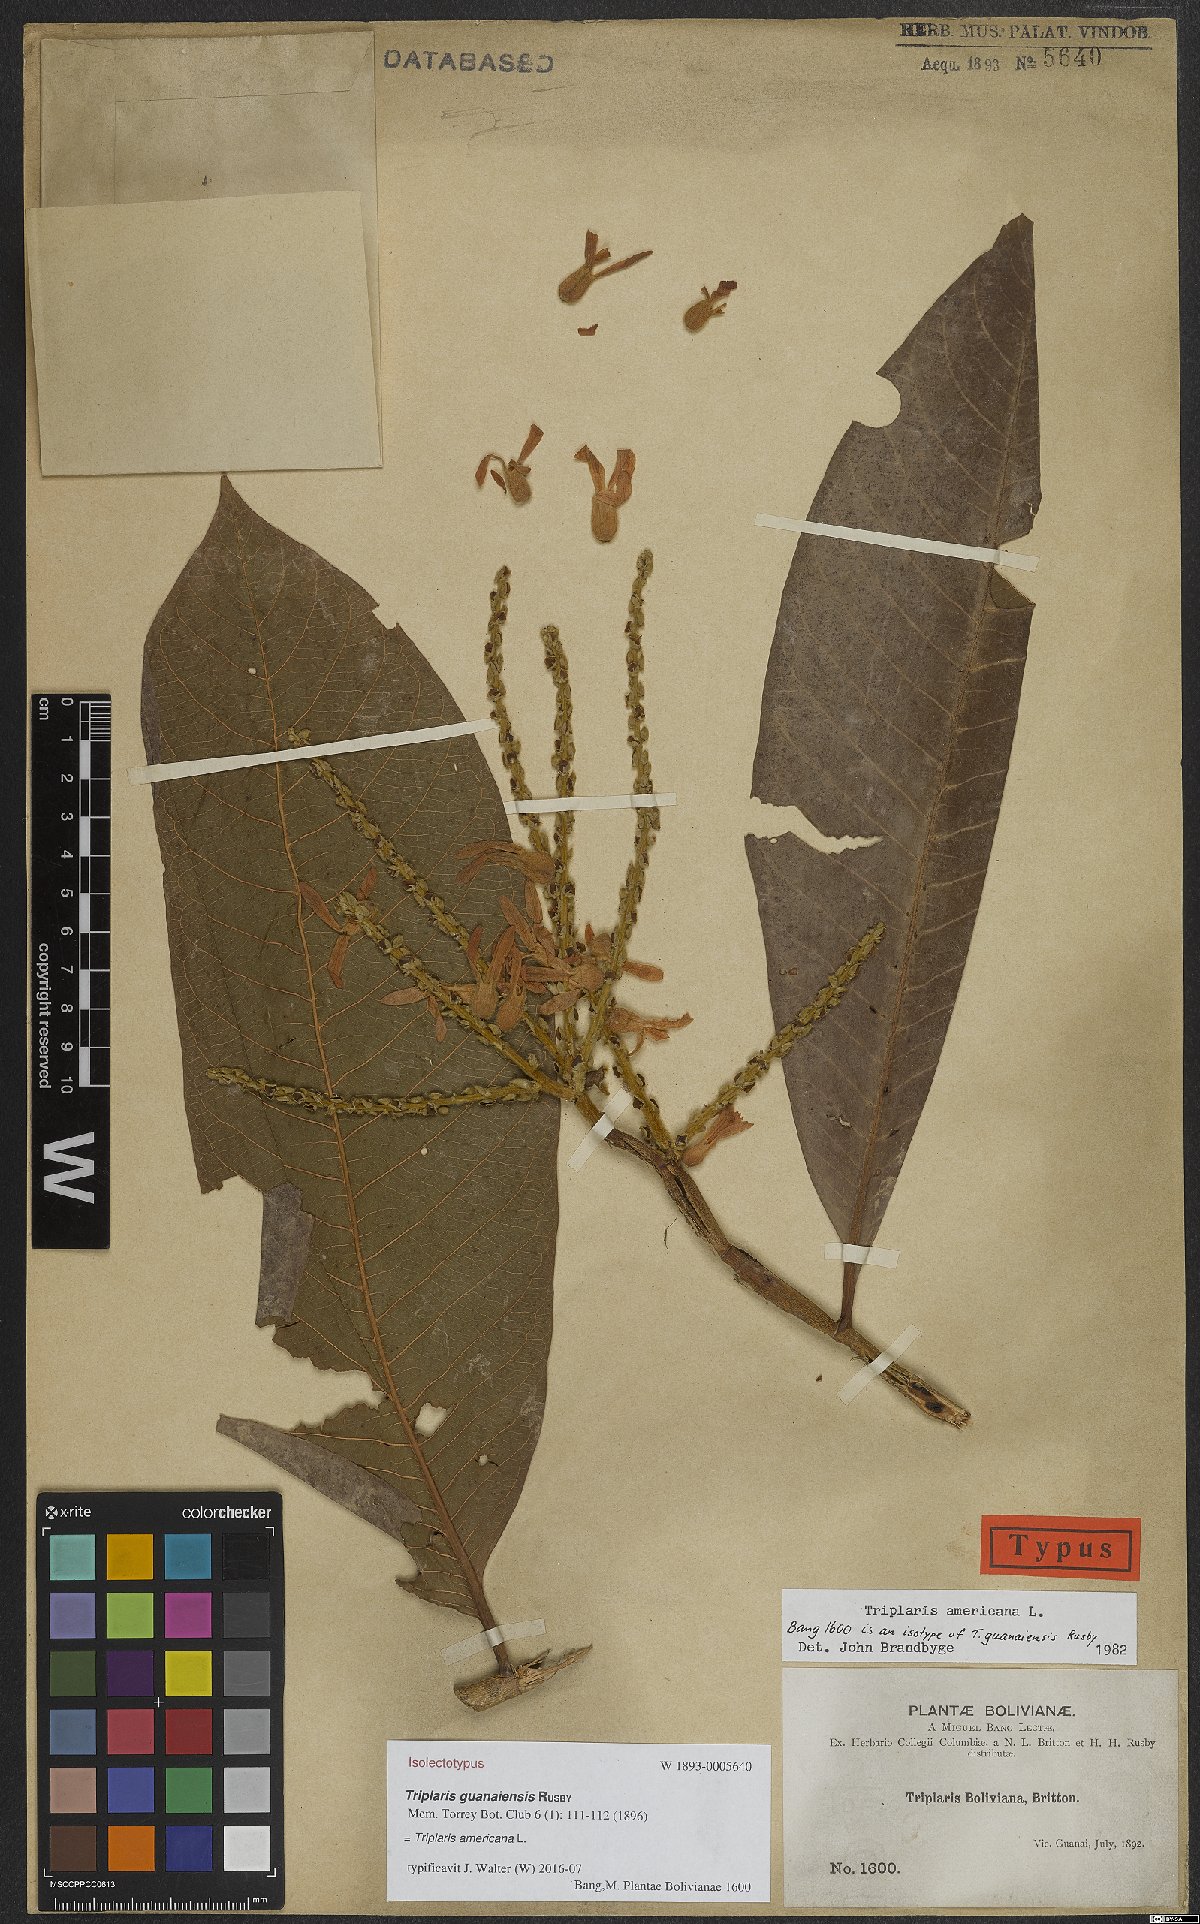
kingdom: Plantae
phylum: Tracheophyta
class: Magnoliopsida
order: Caryophyllales
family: Polygonaceae
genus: Triplaris
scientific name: Triplaris americana
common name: Ant-tree
